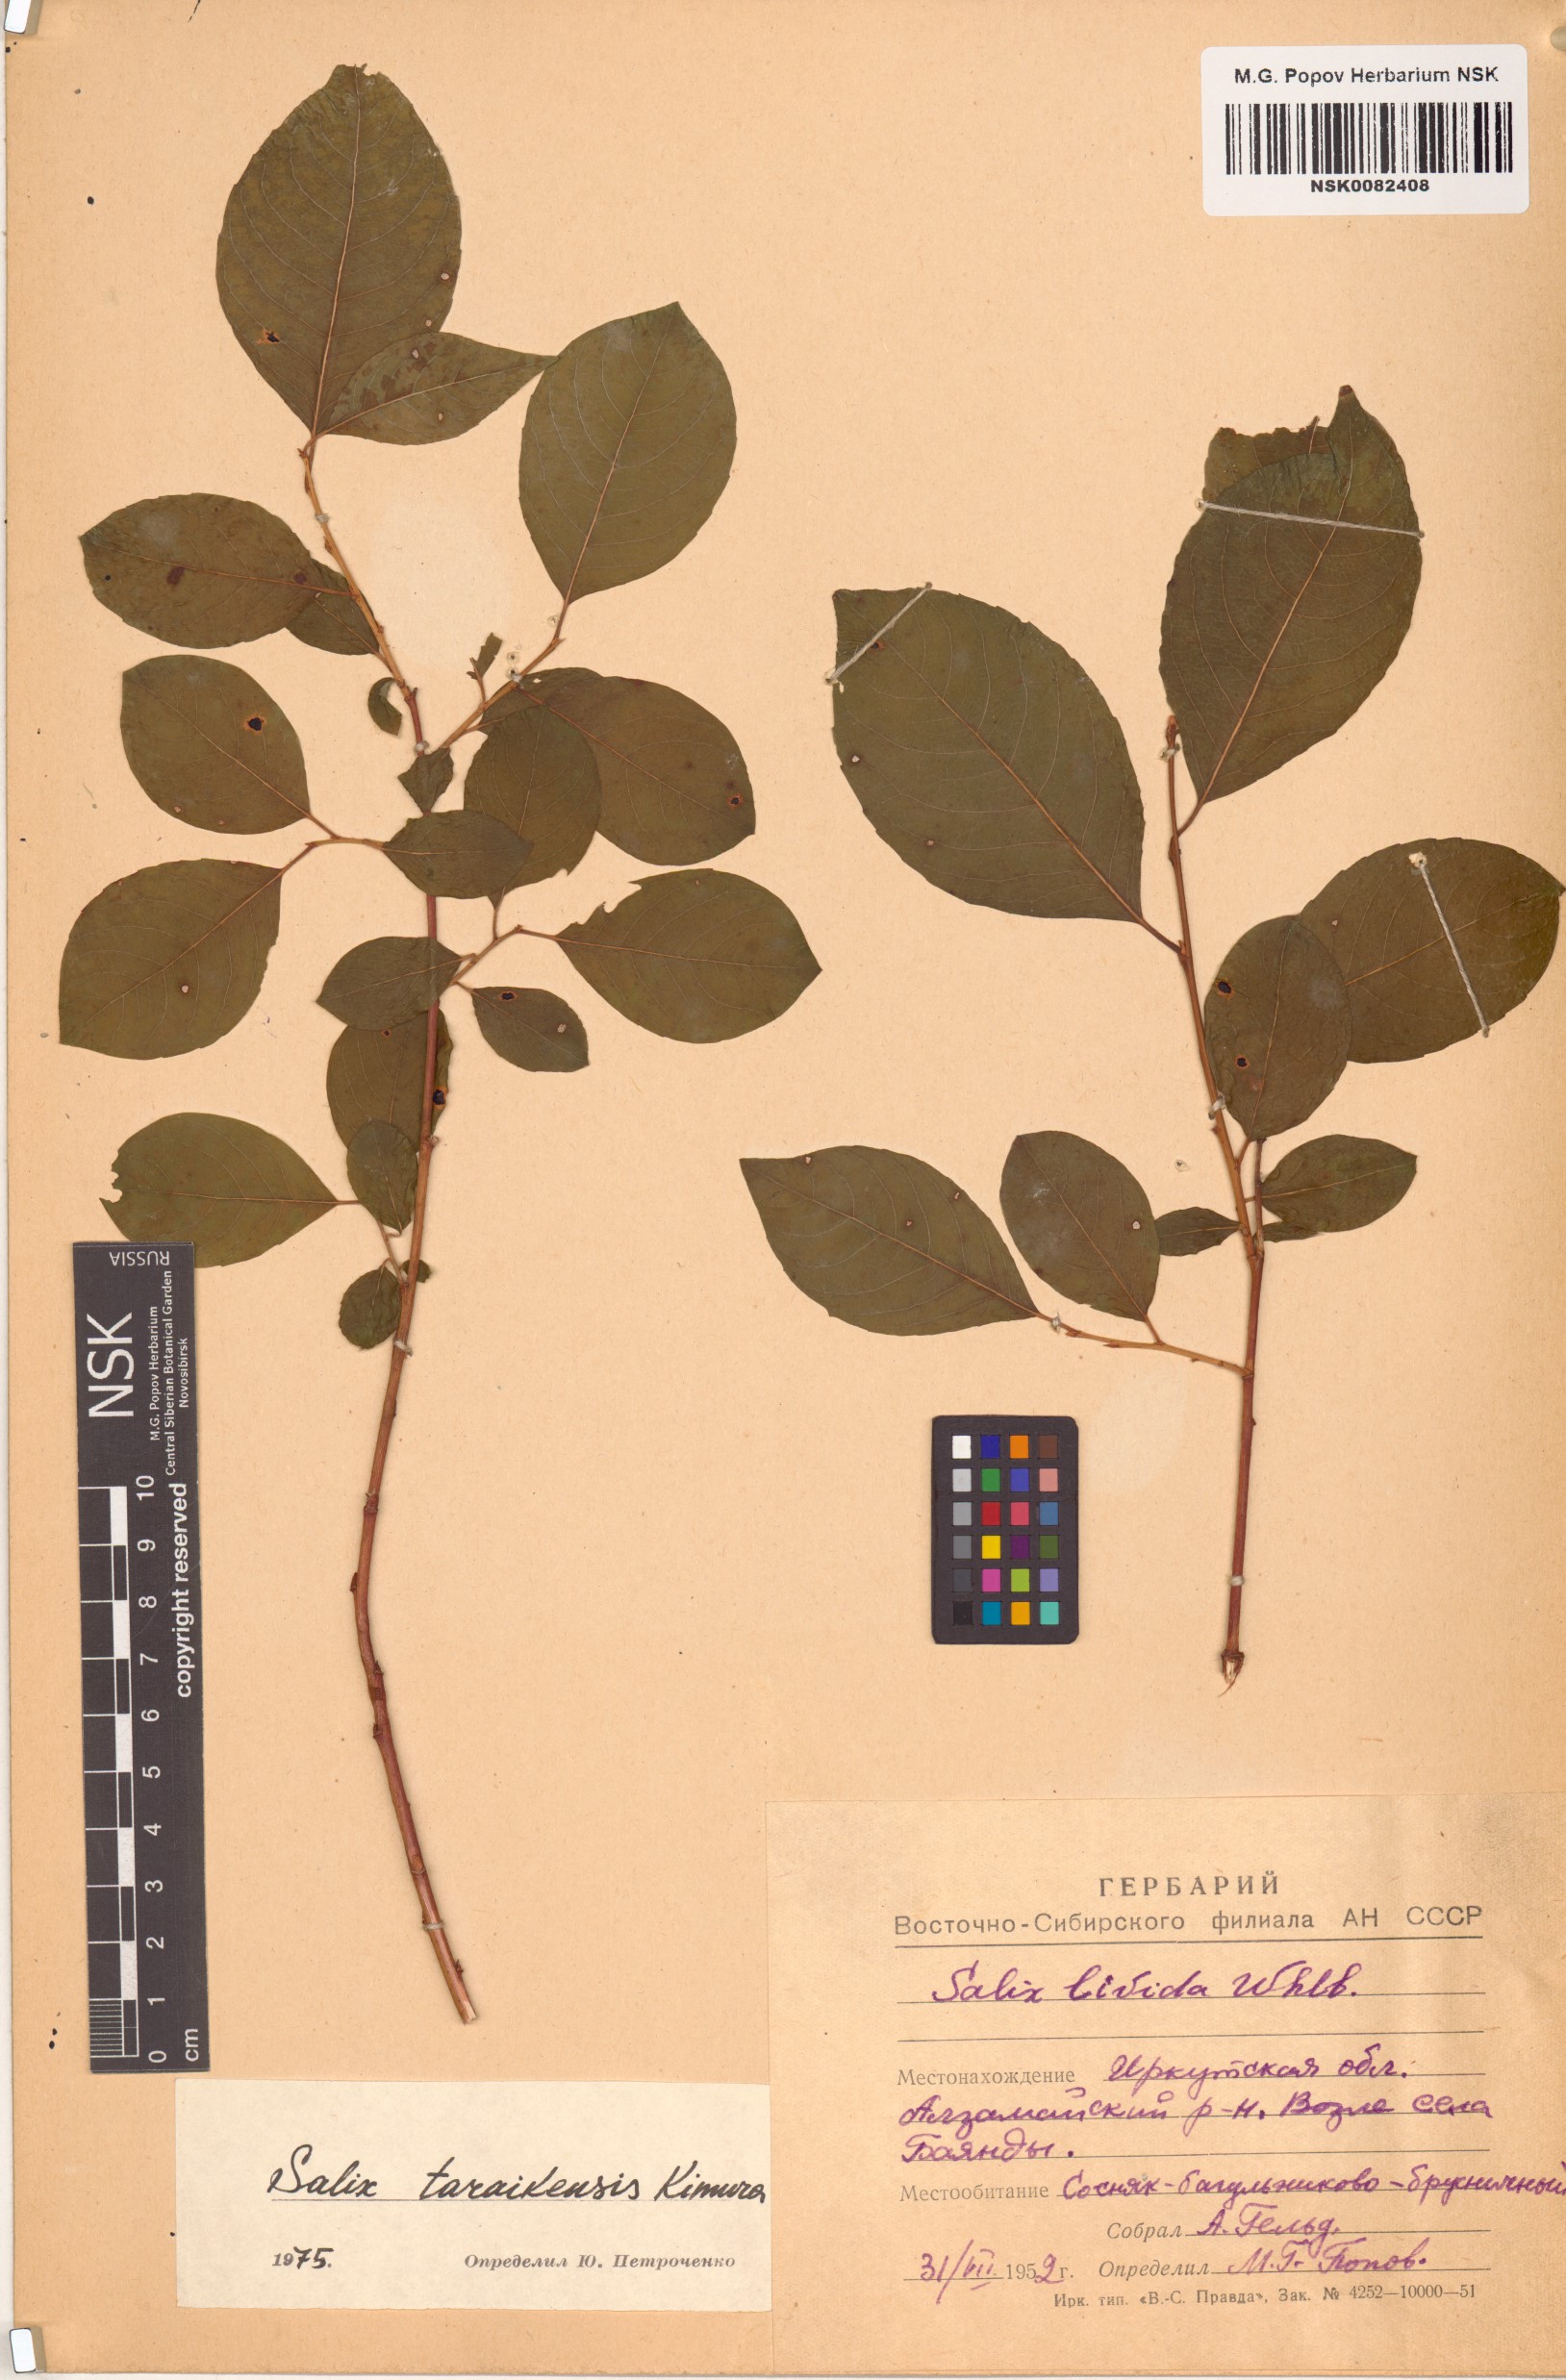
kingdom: Plantae
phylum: Tracheophyta
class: Magnoliopsida
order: Malpighiales
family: Salicaceae
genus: Salix
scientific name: Salix taraikensis
